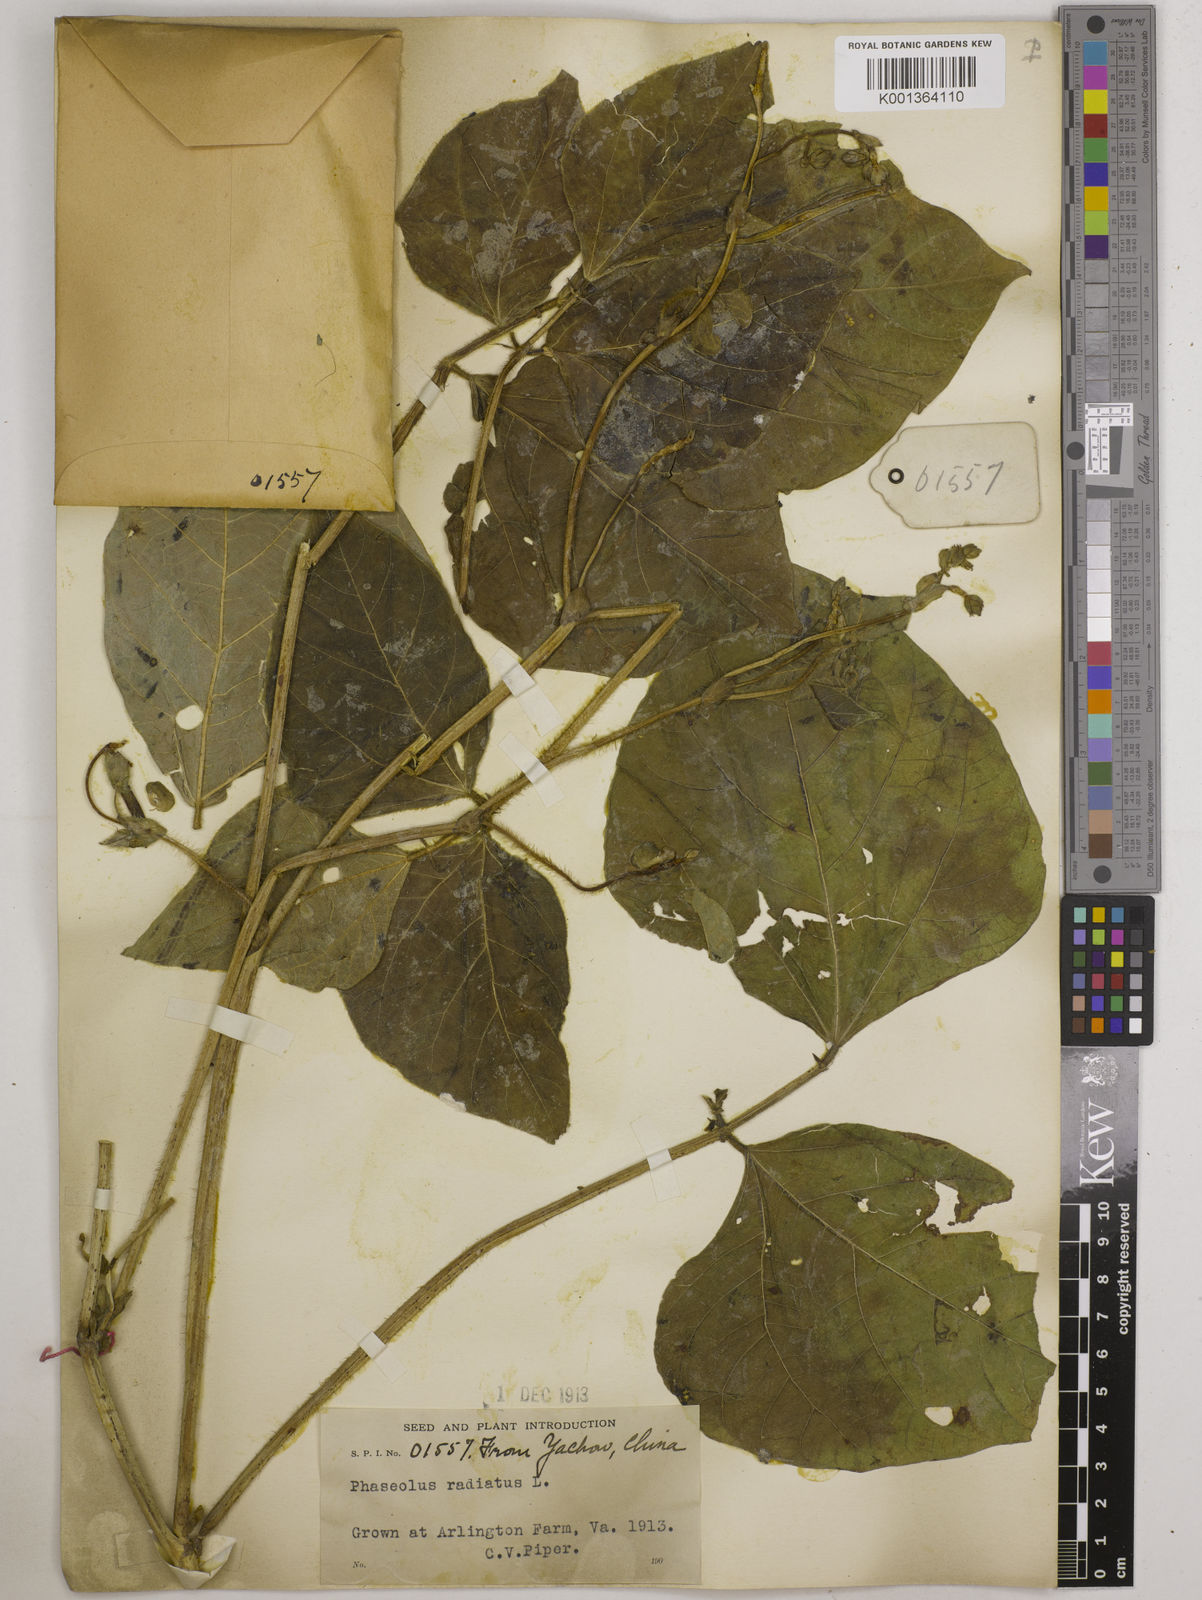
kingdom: Plantae
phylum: Tracheophyta
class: Magnoliopsida
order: Fabales
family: Fabaceae
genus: Vigna
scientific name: Vigna radiata
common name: Mung-bean
